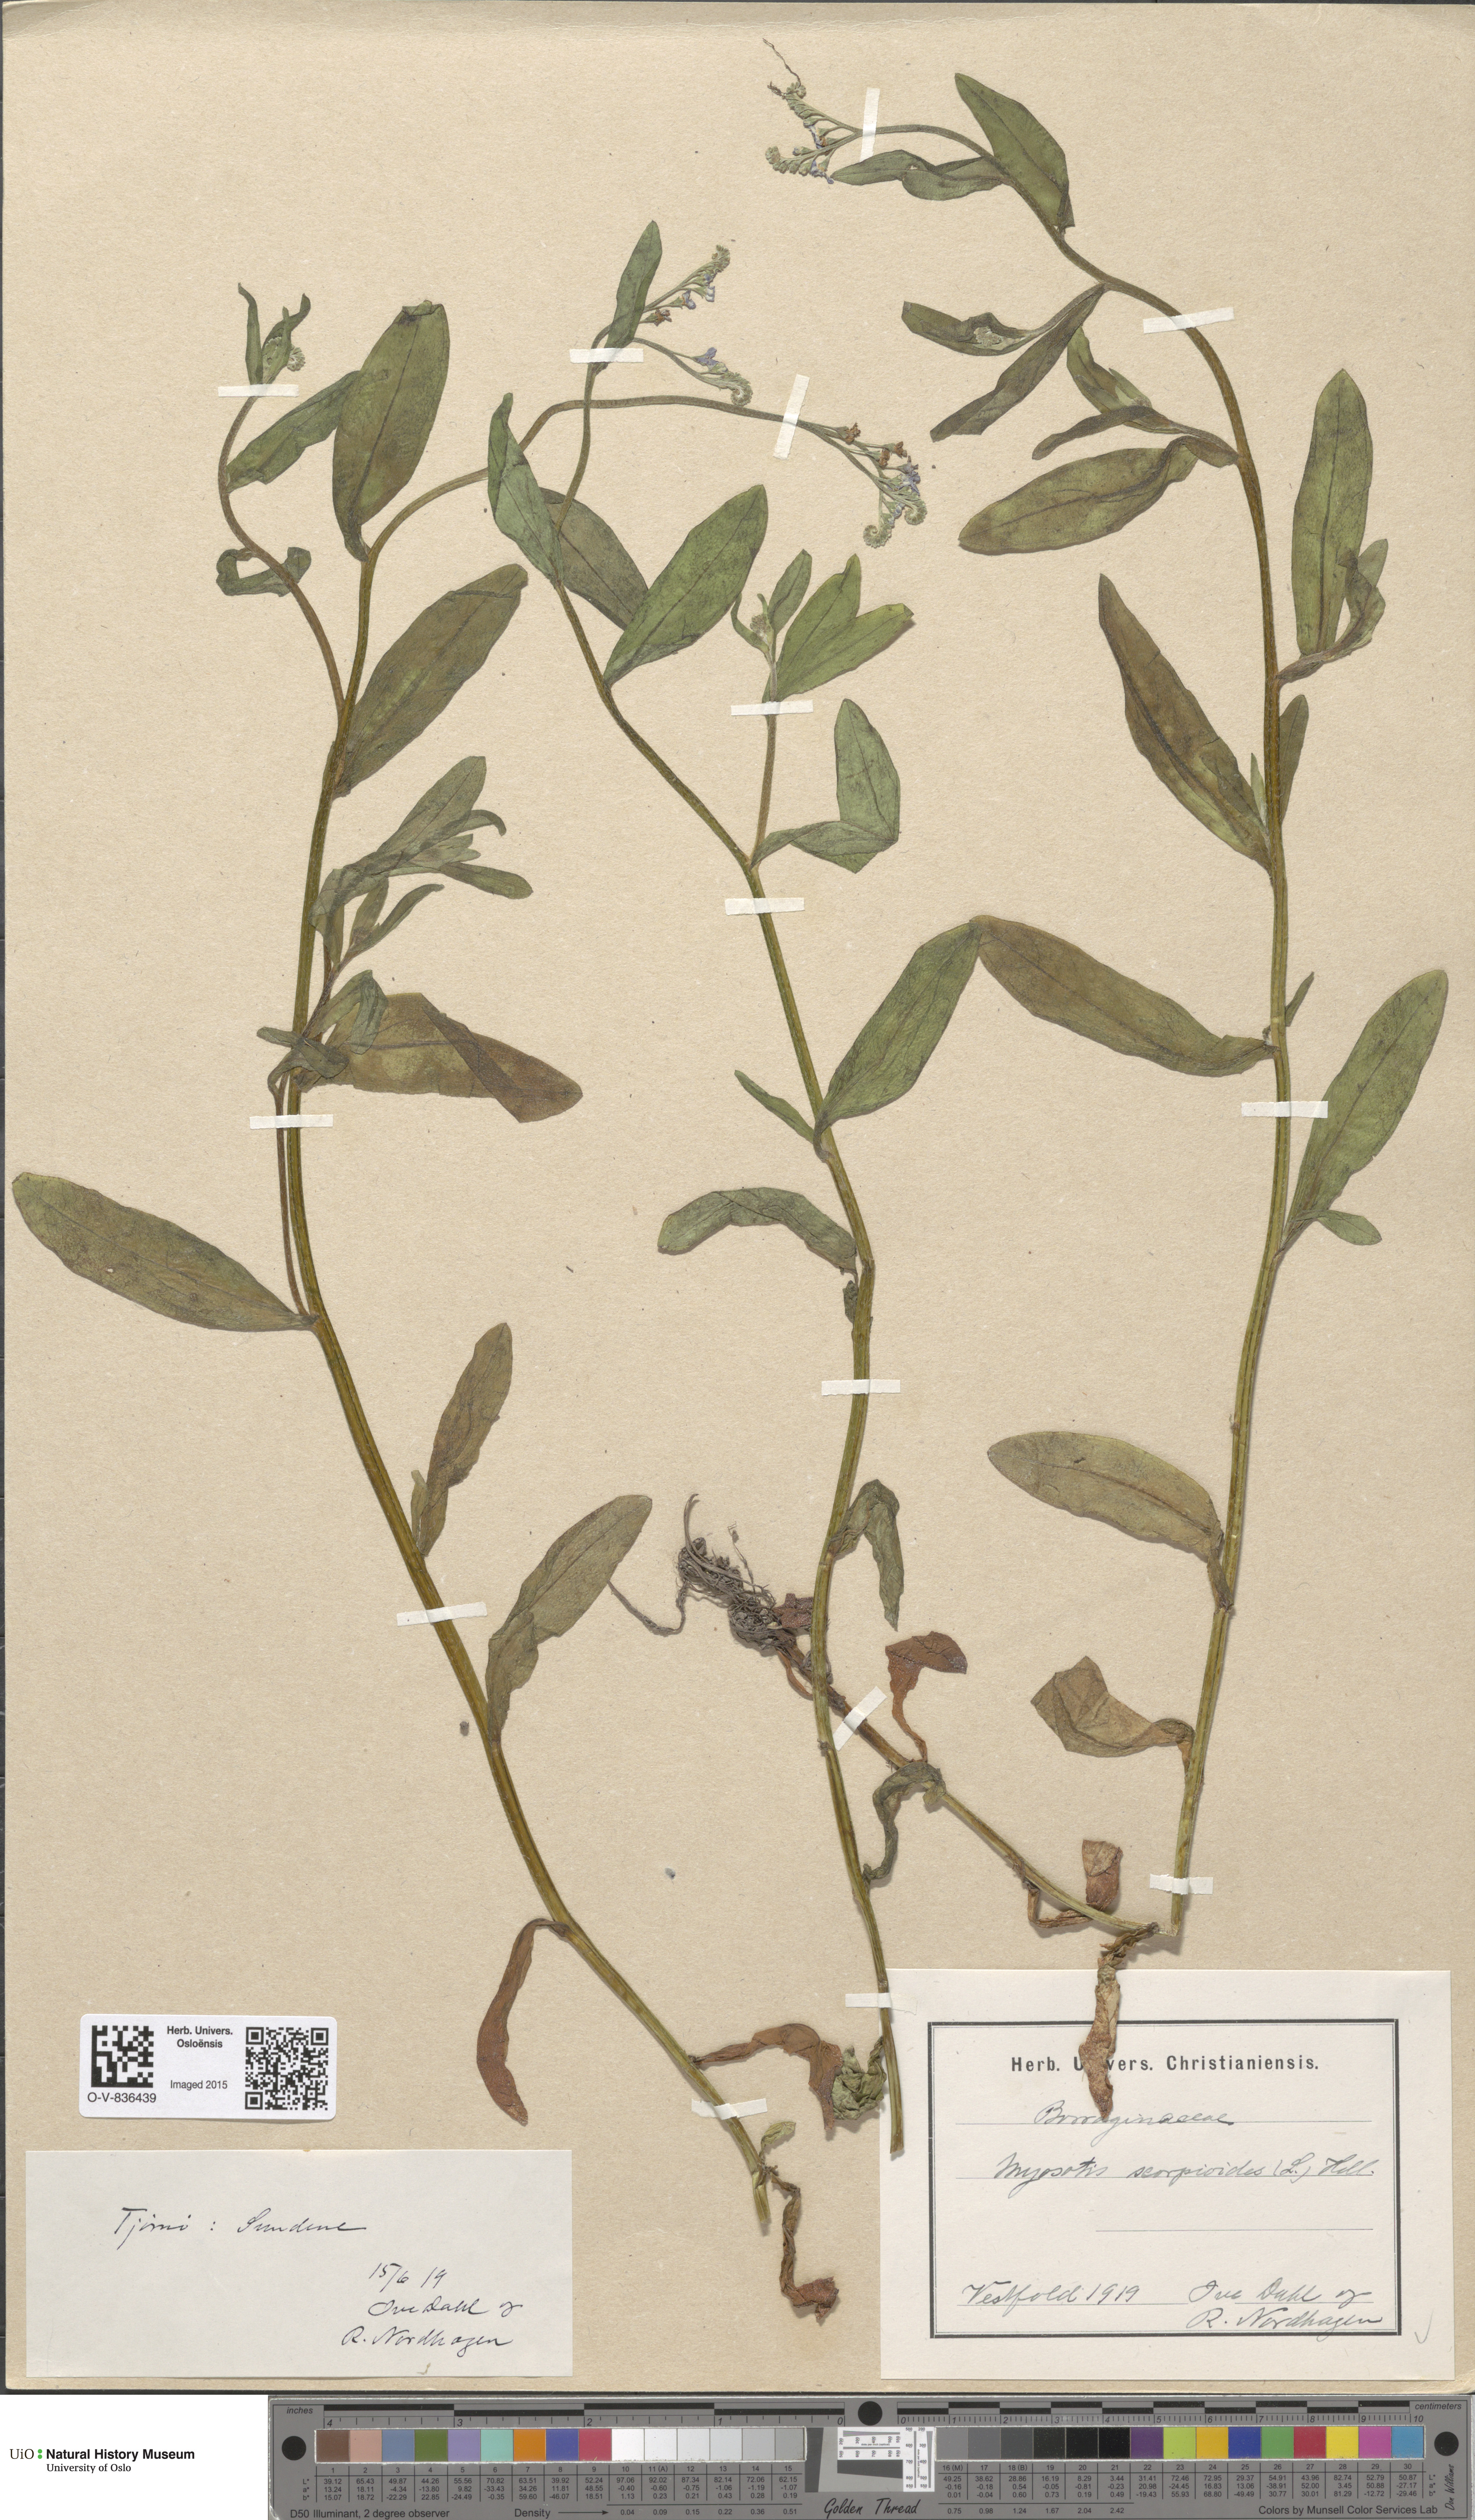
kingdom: Plantae
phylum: Tracheophyta
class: Magnoliopsida
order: Boraginales
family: Boraginaceae
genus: Myosotis
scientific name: Myosotis scorpioides
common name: Water forget-me-not
